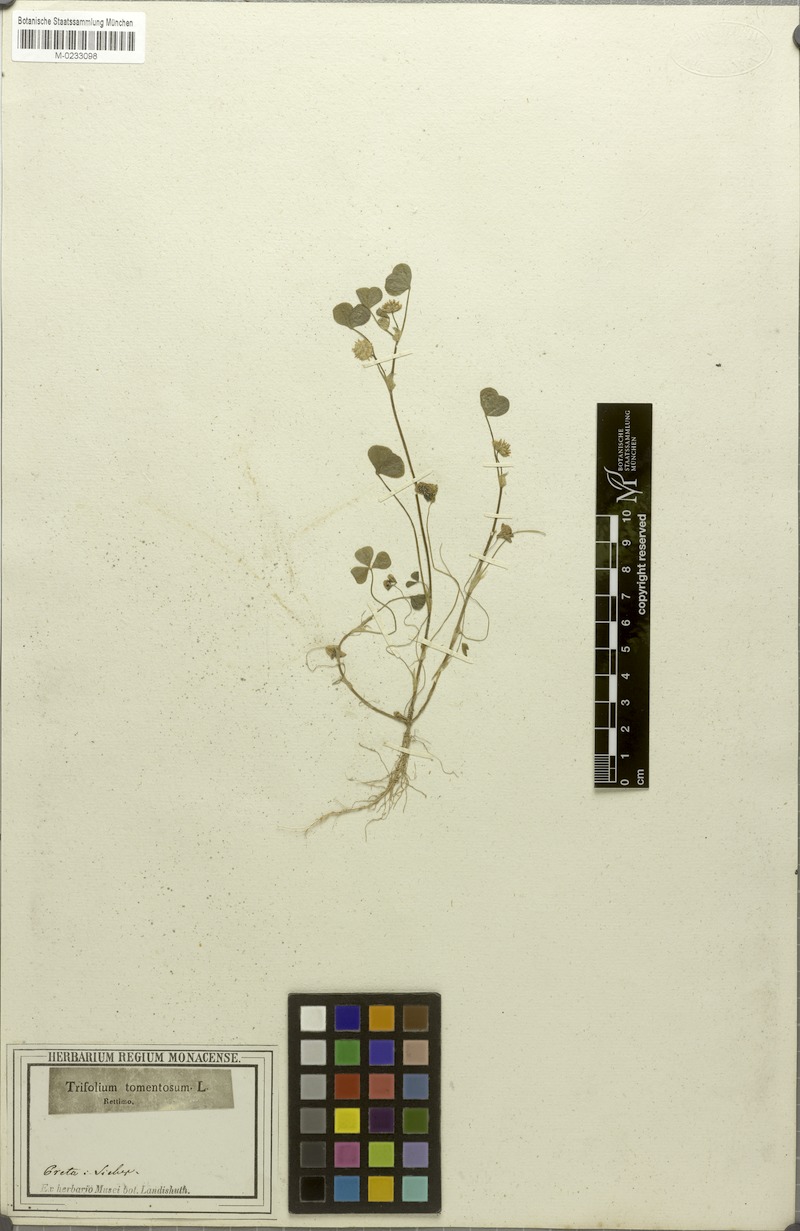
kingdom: Plantae
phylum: Tracheophyta
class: Magnoliopsida
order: Fabales
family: Fabaceae
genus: Trifolium
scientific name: Trifolium tomentosum
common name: Woolly clover
